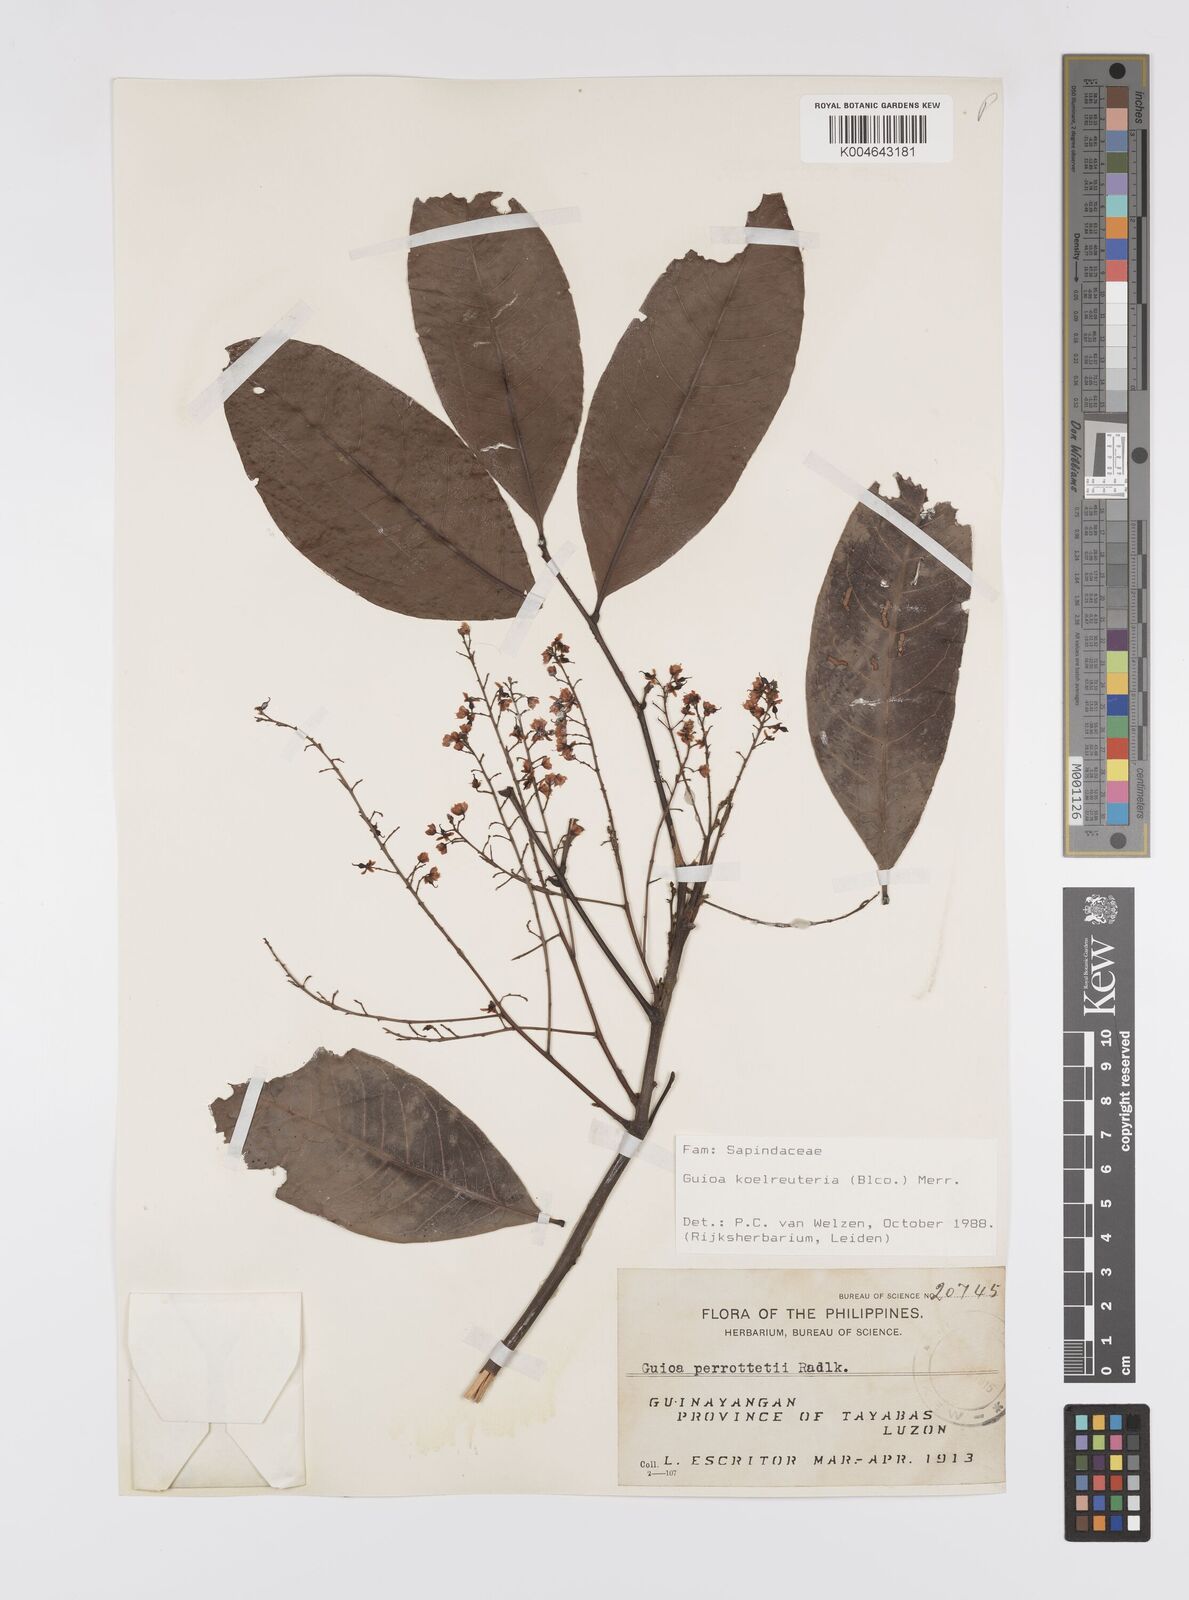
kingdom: Plantae
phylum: Tracheophyta
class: Magnoliopsida
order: Sapindales
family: Sapindaceae
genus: Guioa
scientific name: Guioa koelreuteria
